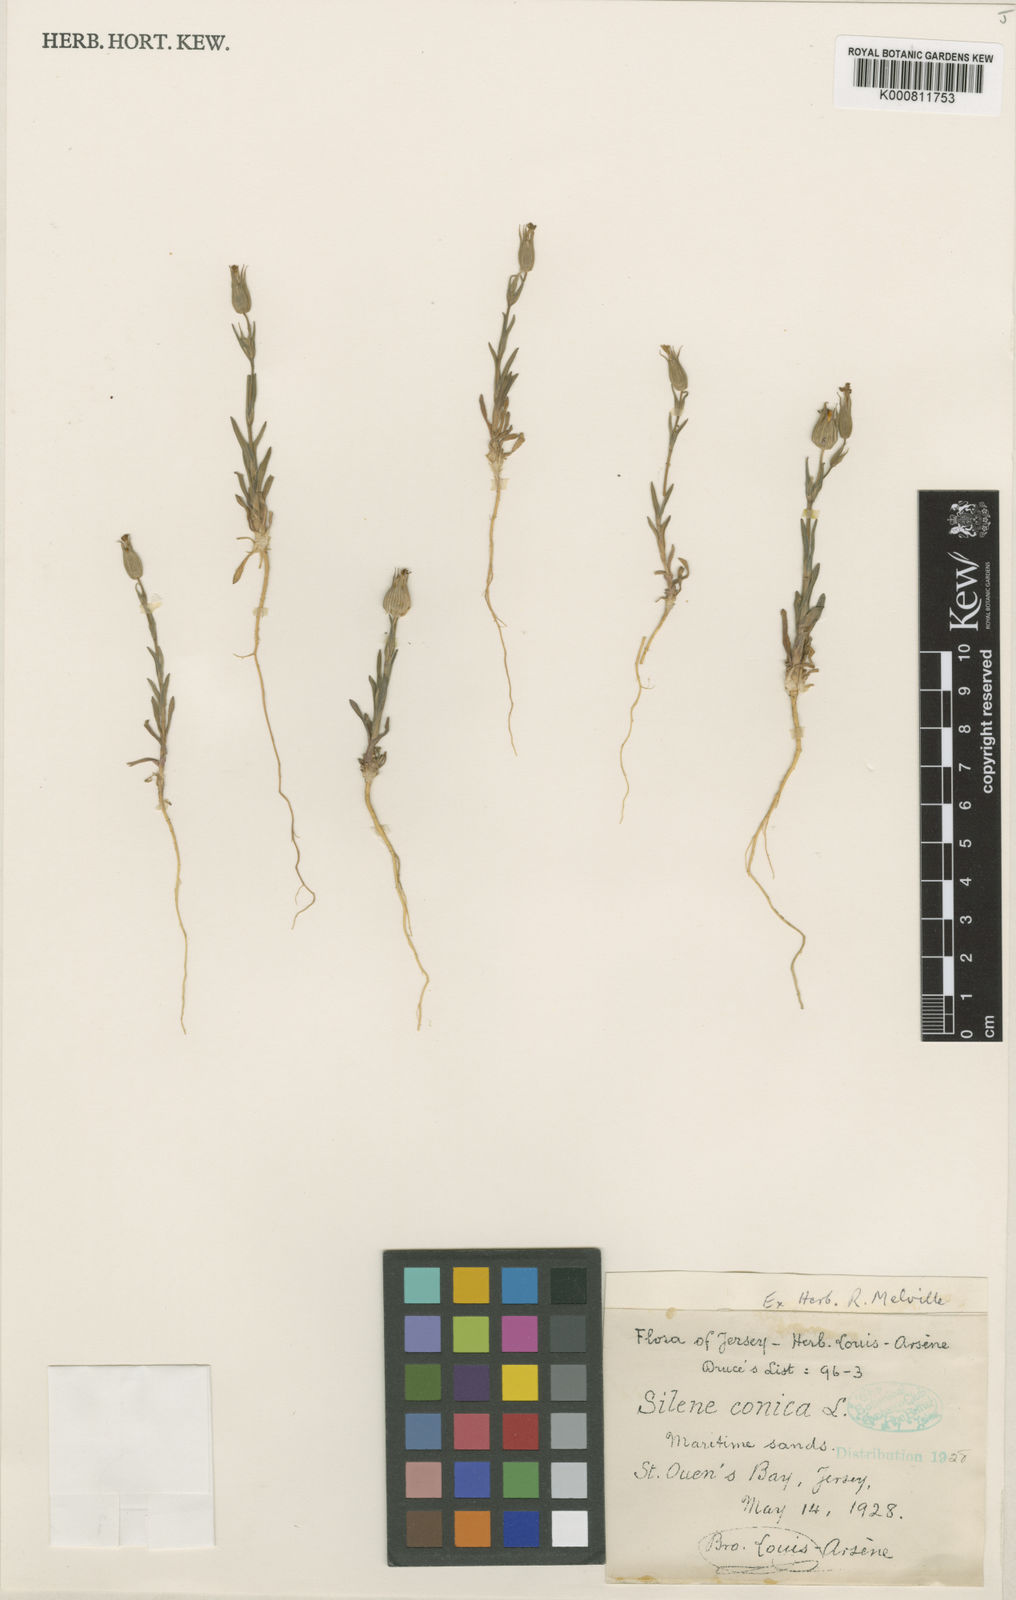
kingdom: Plantae
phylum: Tracheophyta
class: Magnoliopsida
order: Caryophyllales
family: Caryophyllaceae
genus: Silene
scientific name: Silene conica
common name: Sand catchfly
